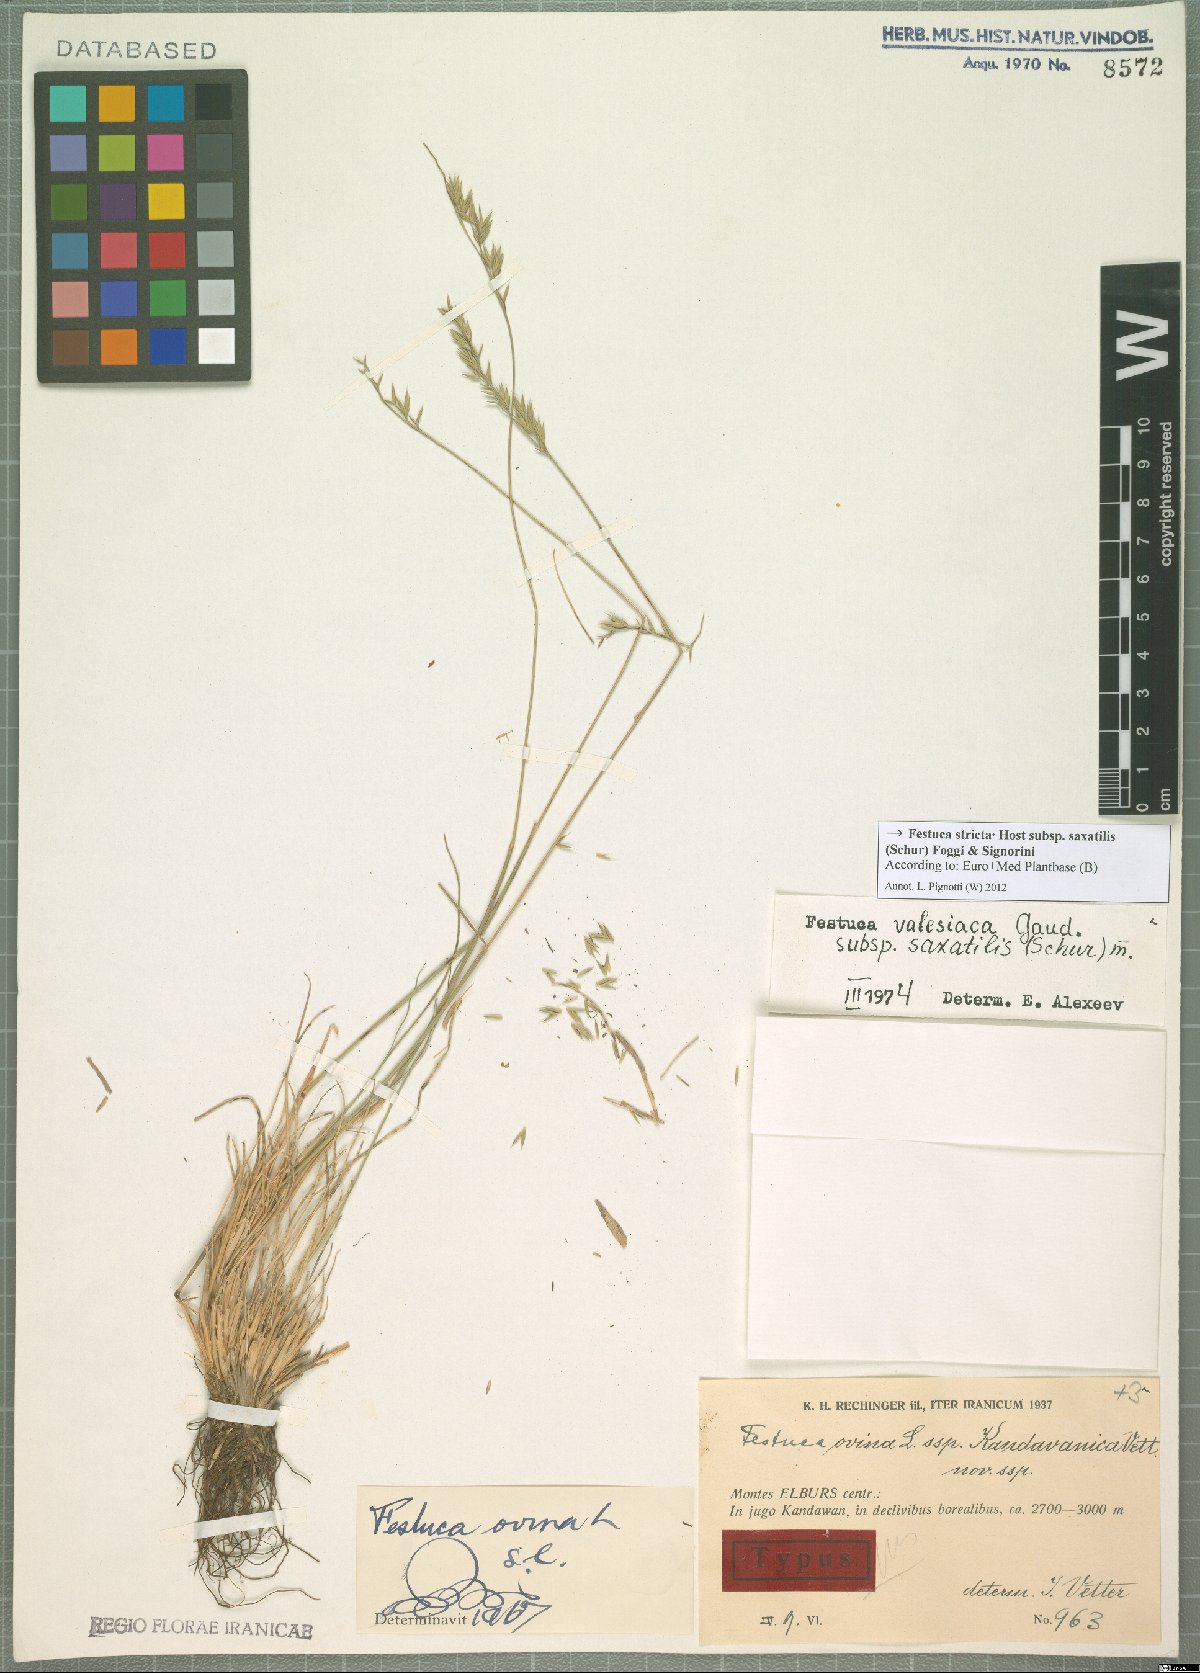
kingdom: Plantae
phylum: Tracheophyta
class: Liliopsida
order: Poales
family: Poaceae
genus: Festuca
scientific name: Festuca saxatilis
